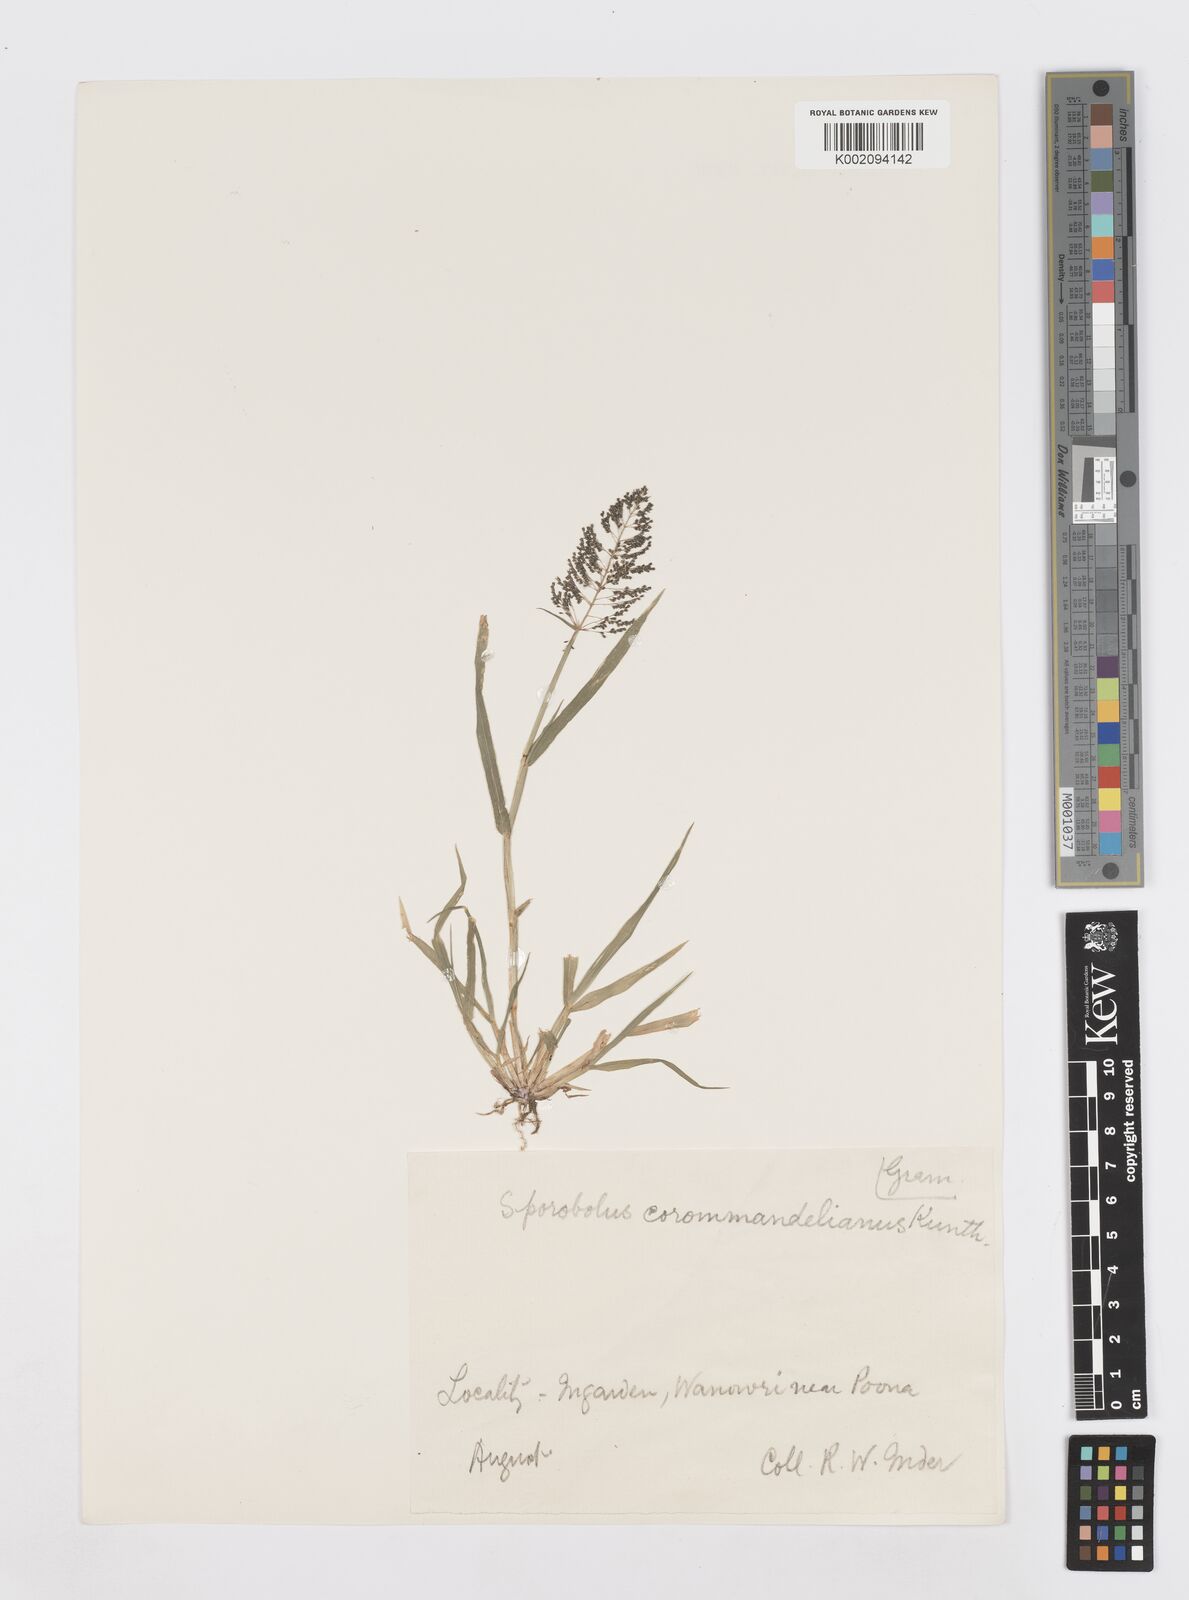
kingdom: Plantae
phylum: Tracheophyta
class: Liliopsida
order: Poales
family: Poaceae
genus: Sporobolus
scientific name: Sporobolus coromandelianus
